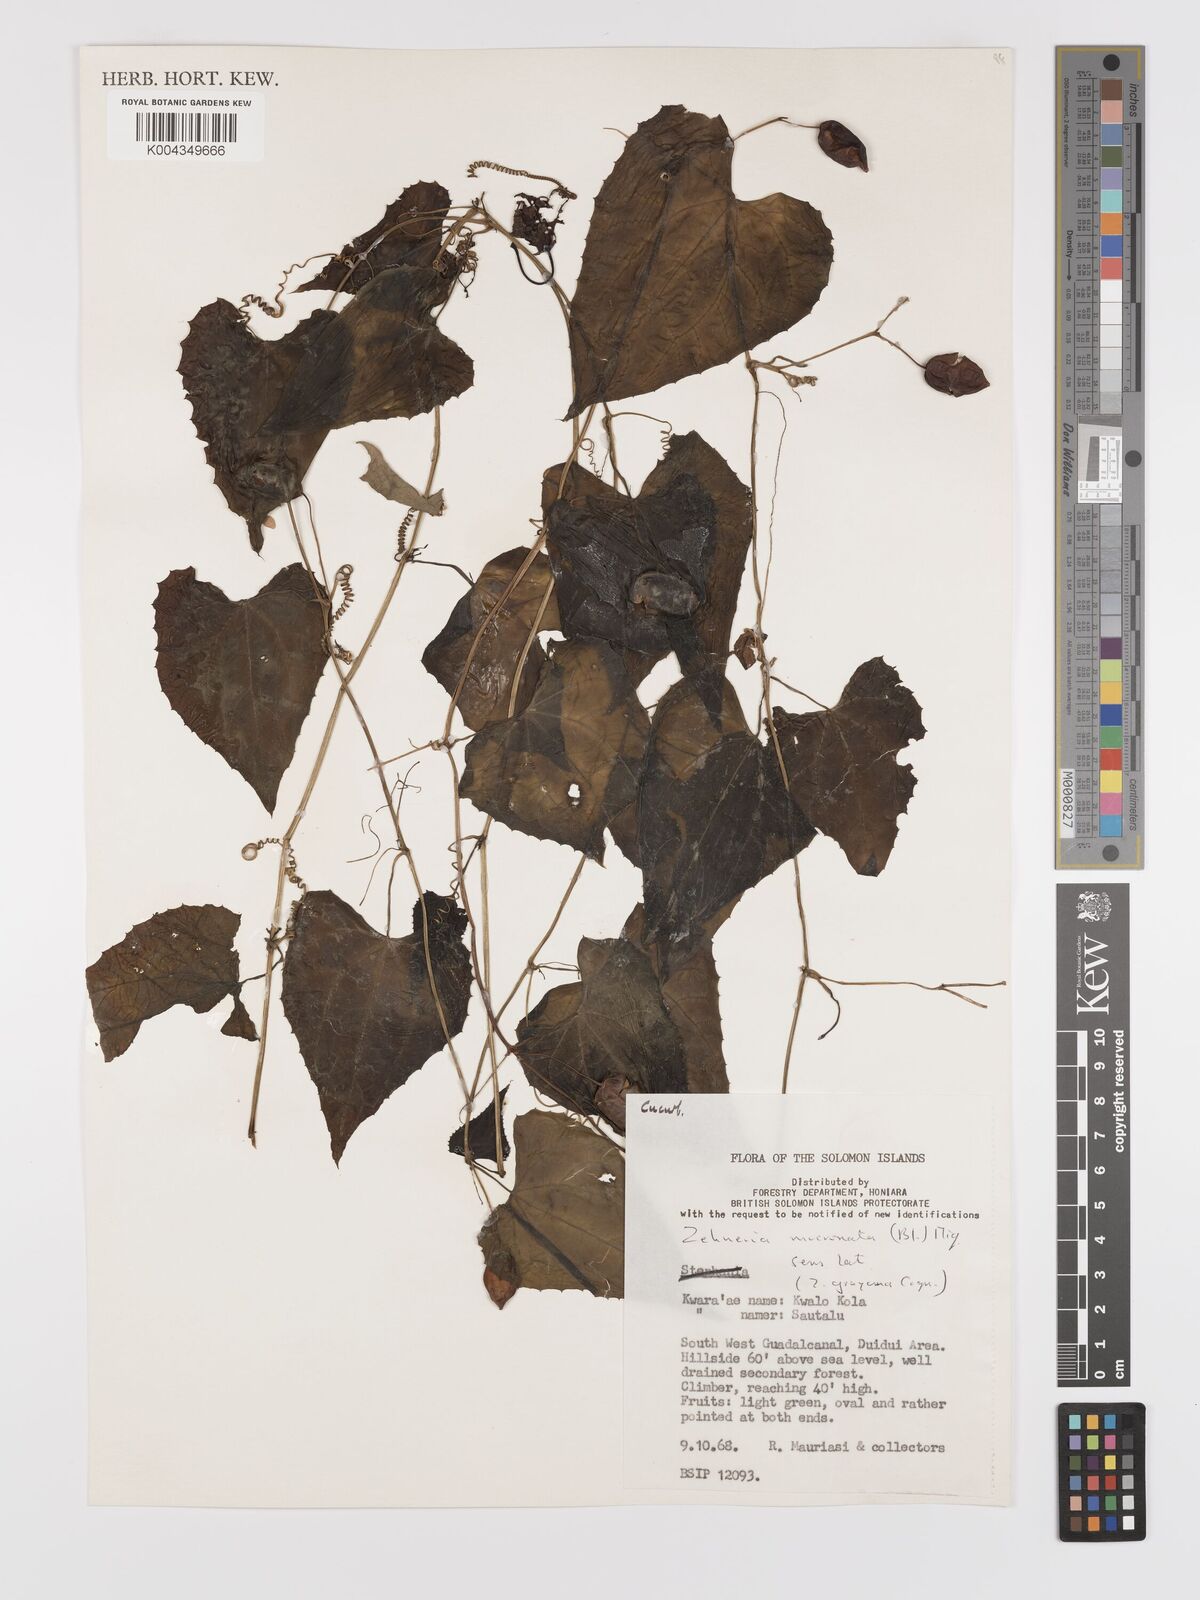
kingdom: Plantae
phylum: Tracheophyta
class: Magnoliopsida
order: Cucurbitales
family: Cucurbitaceae
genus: Zehneria
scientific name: Zehneria mucronata
